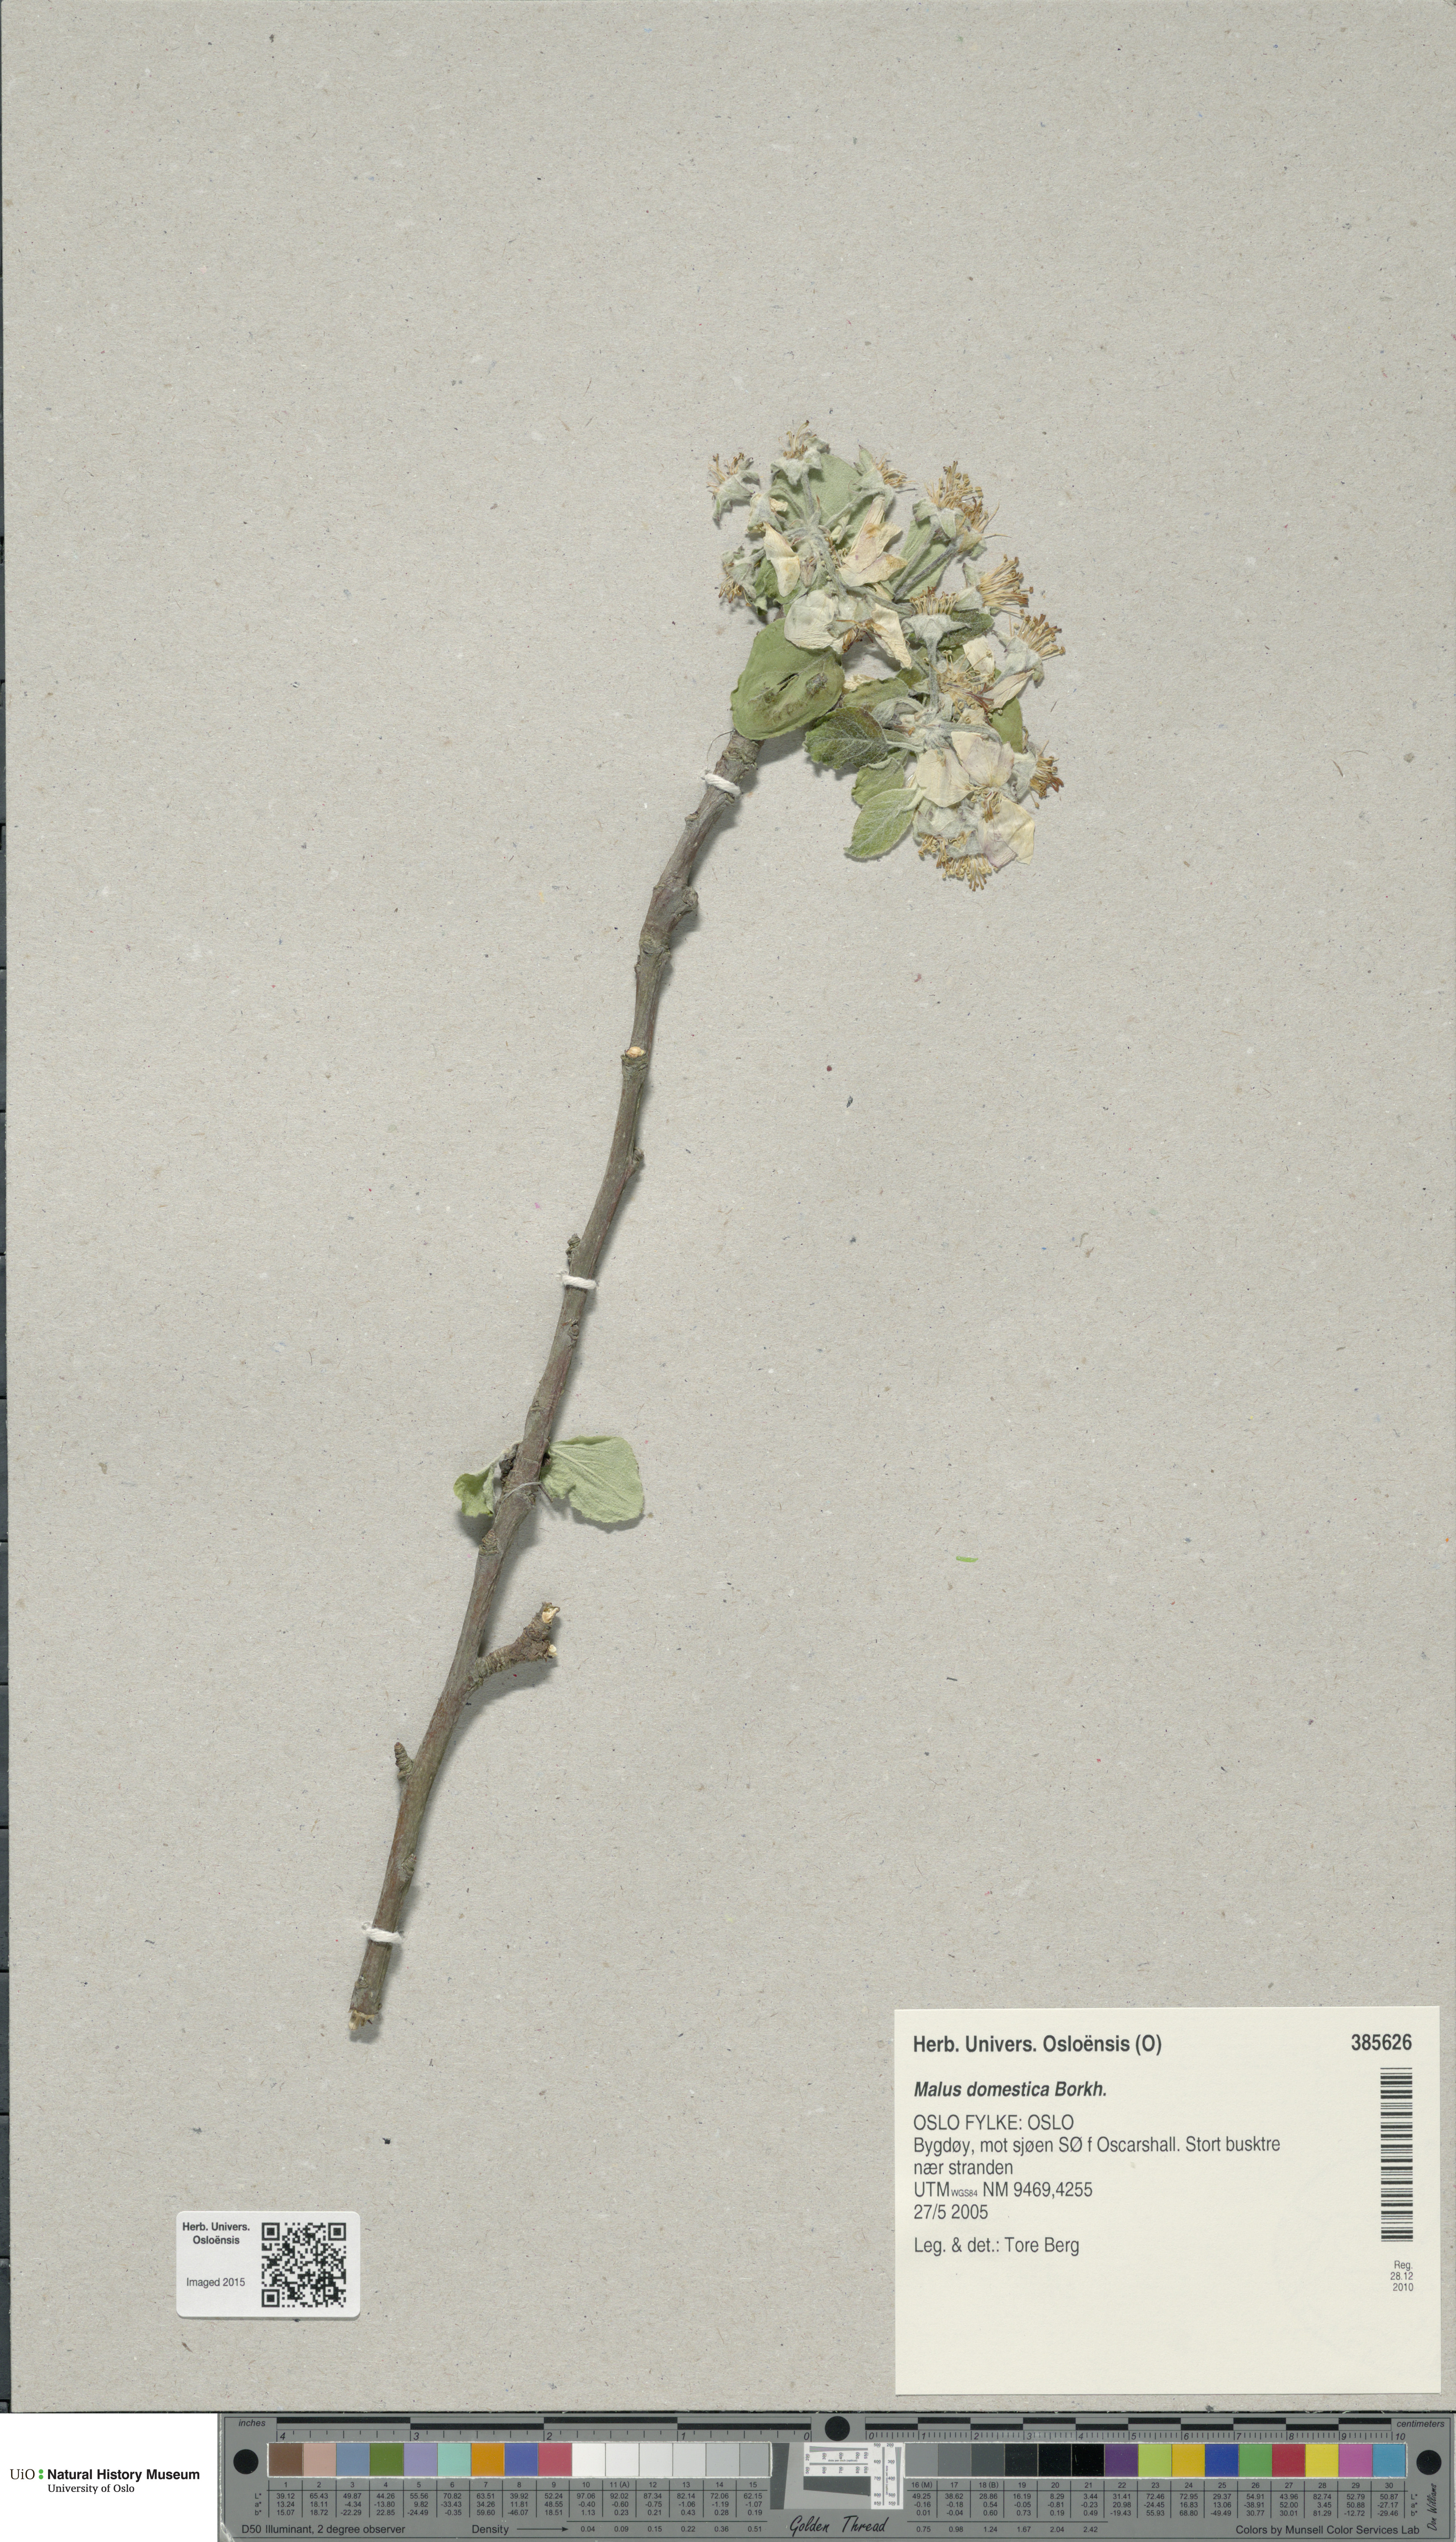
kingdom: Plantae
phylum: Tracheophyta
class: Magnoliopsida
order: Rosales
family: Rosaceae
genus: Malus
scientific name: Malus domestica
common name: Apple
